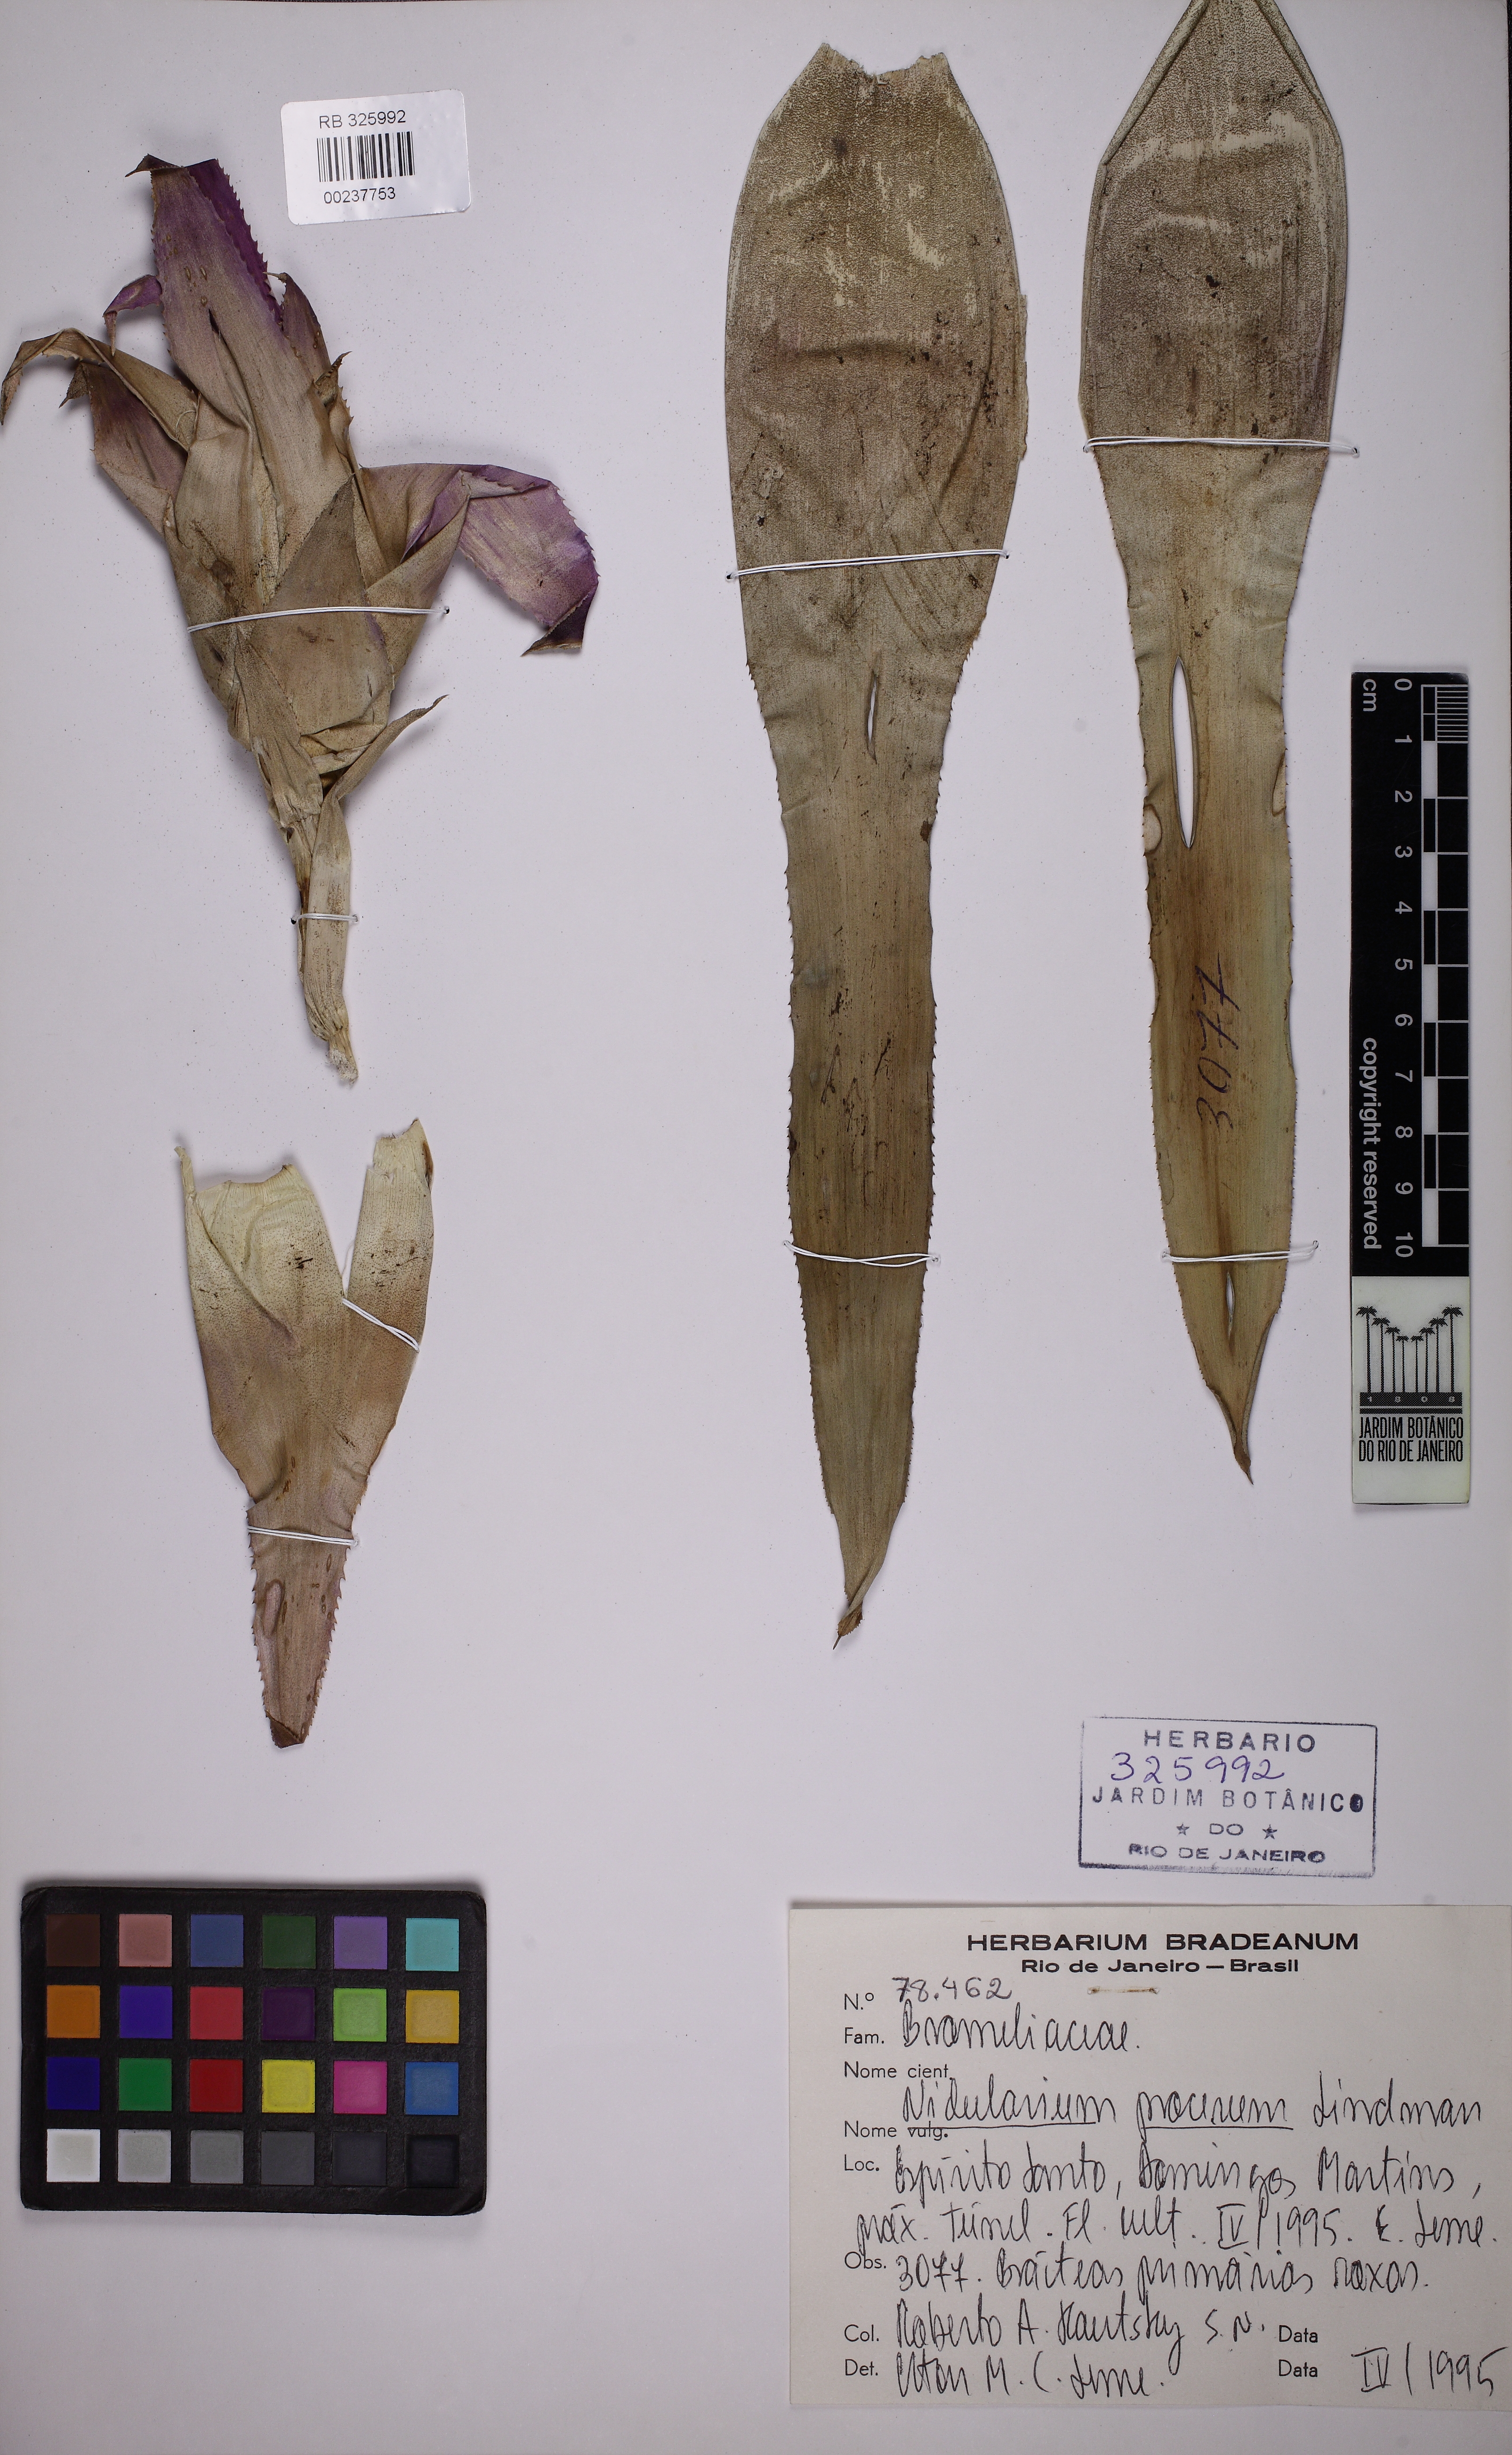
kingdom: Plantae
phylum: Tracheophyta
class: Liliopsida
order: Poales
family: Bromeliaceae
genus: Nidularium
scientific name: Nidularium procerum
